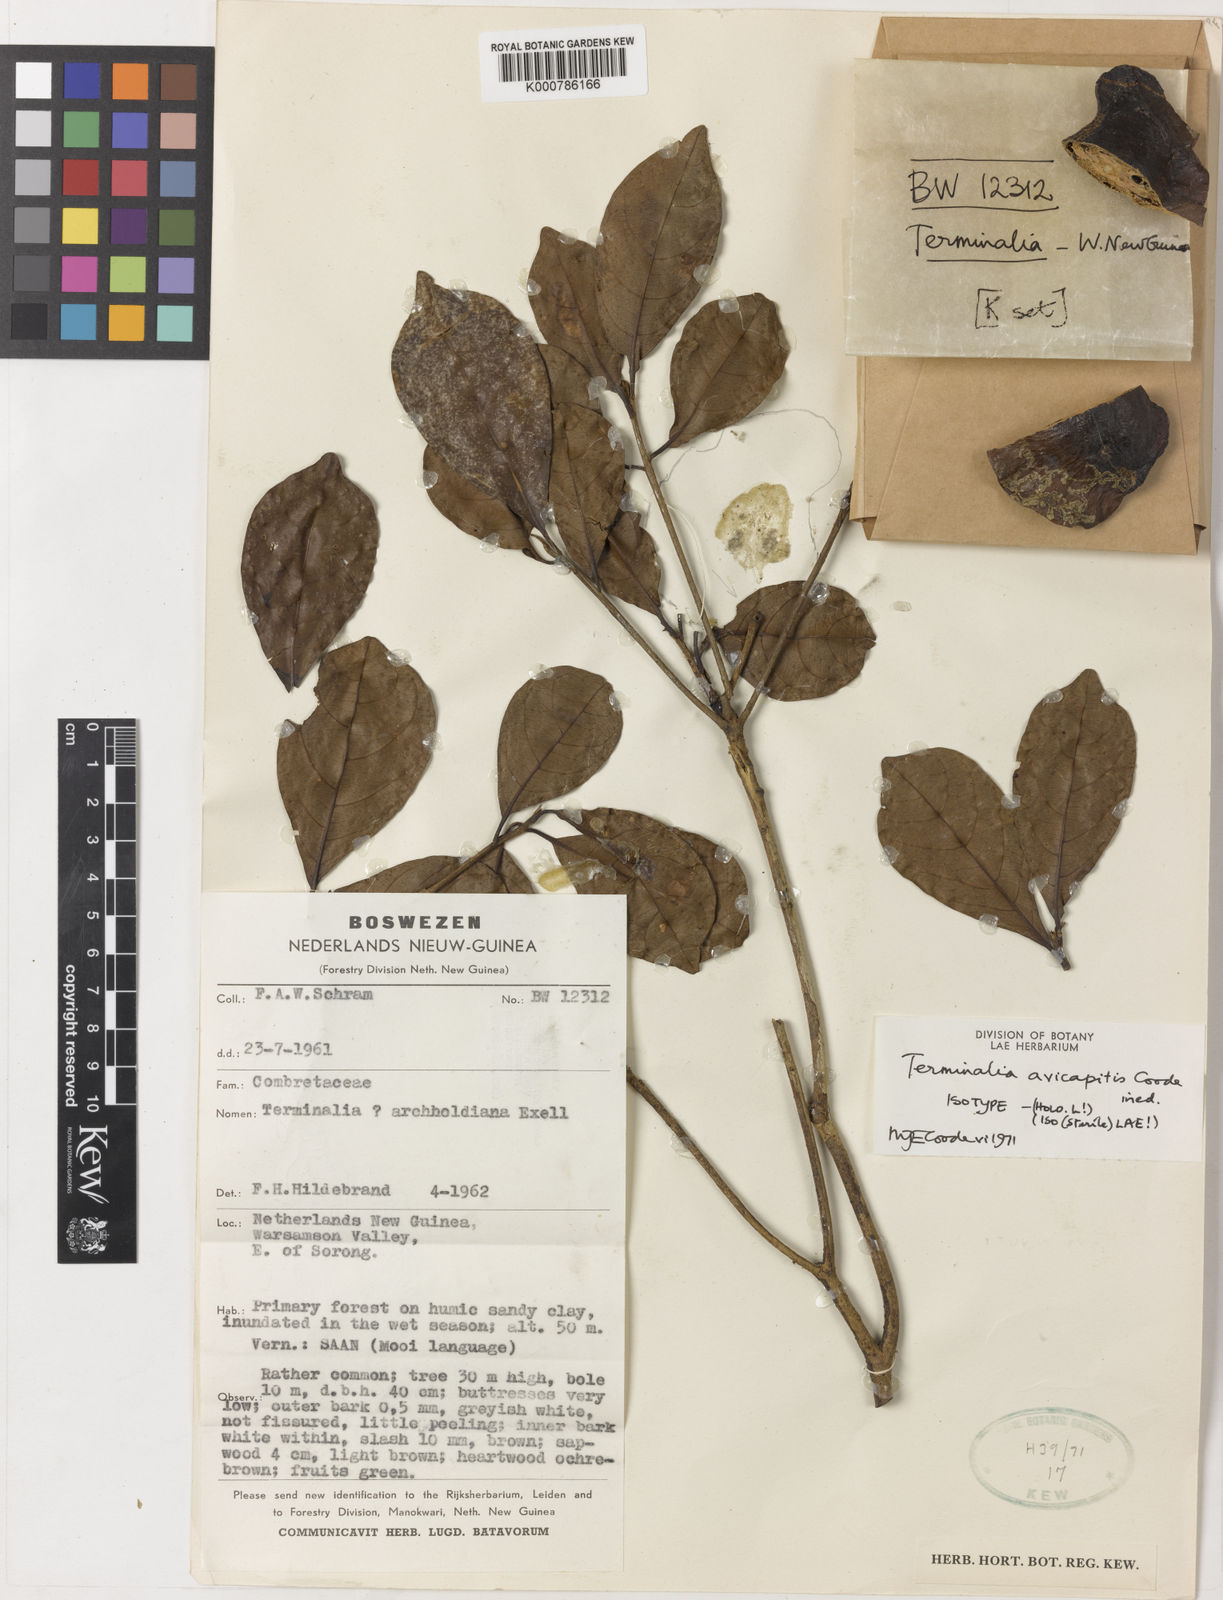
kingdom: Plantae
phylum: Tracheophyta
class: Magnoliopsida
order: Myrtales
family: Combretaceae
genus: Terminalia
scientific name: Terminalia avicapitis
